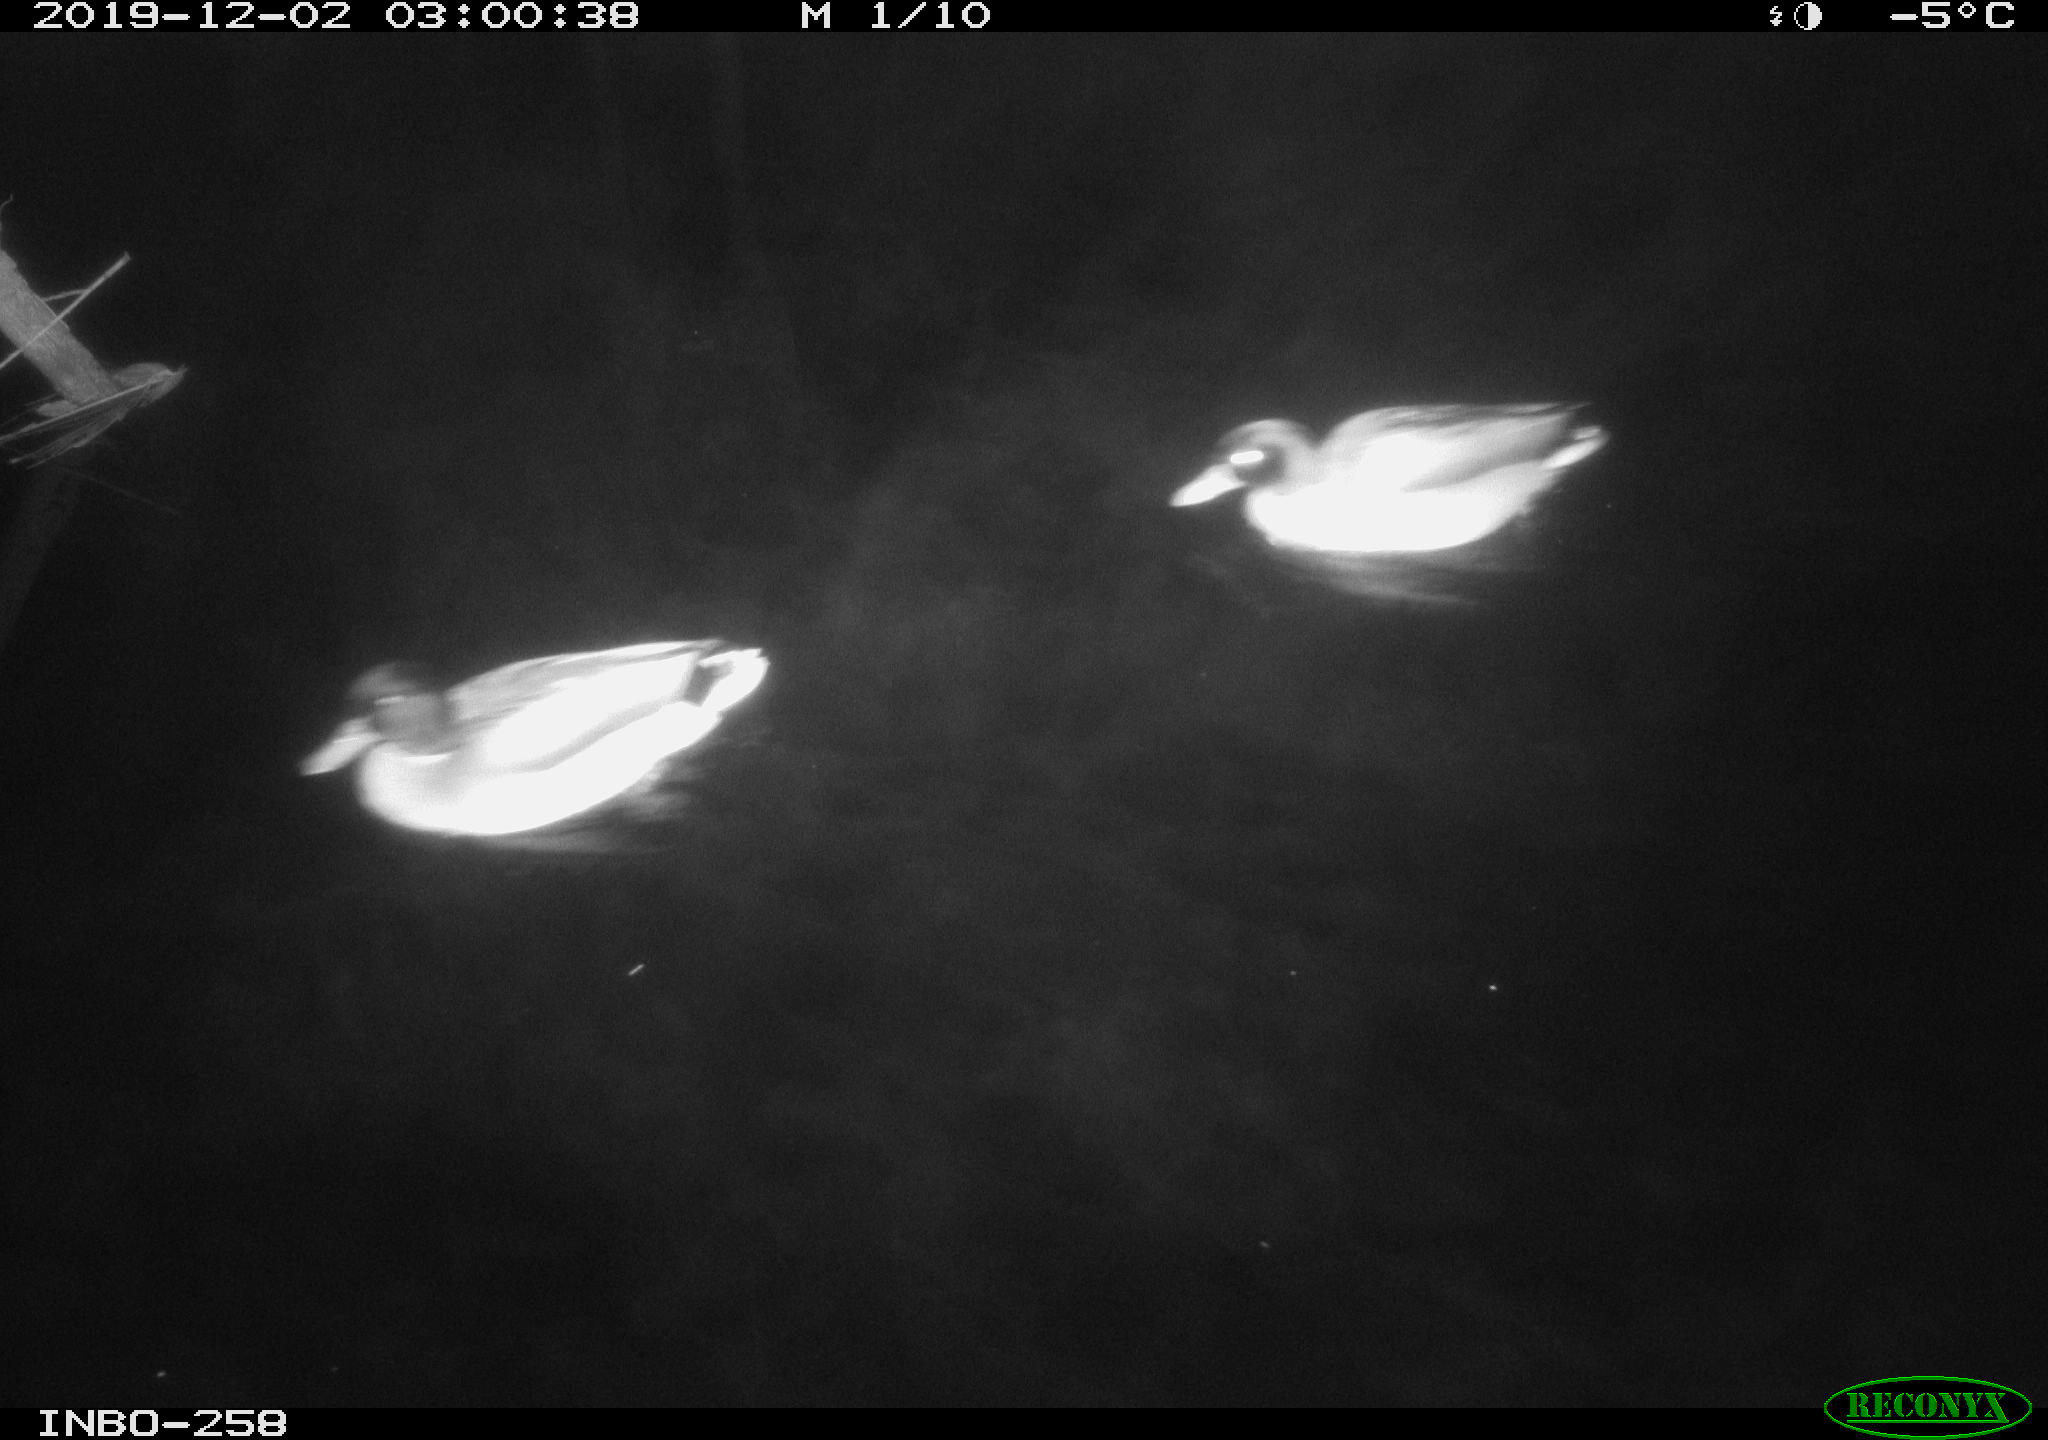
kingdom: Animalia
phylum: Chordata
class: Aves
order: Anseriformes
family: Anatidae
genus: Anas
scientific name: Anas platyrhynchos
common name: Mallard
